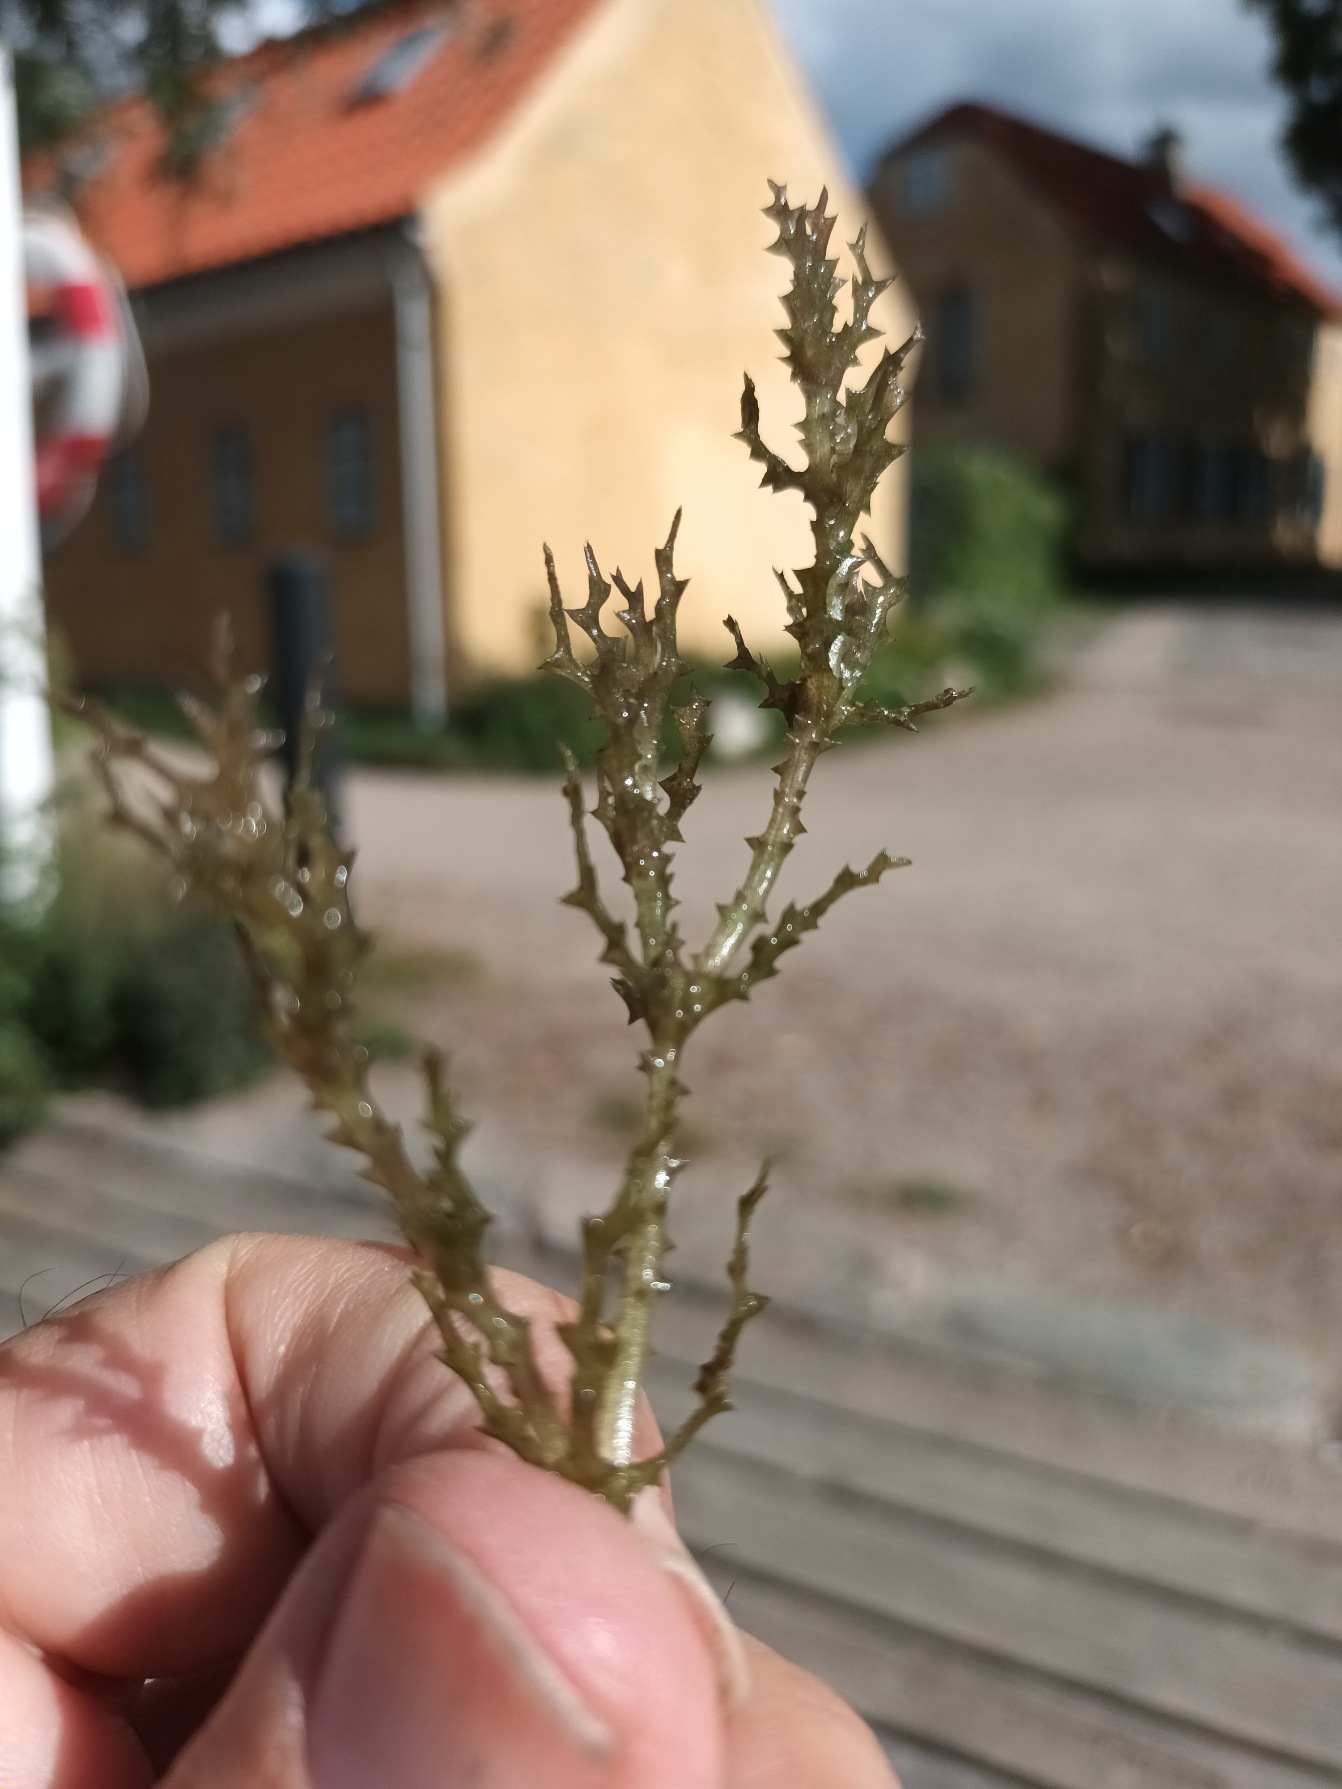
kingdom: Plantae
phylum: Tracheophyta
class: Liliopsida
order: Alismatales
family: Hydrocharitaceae
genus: Najas
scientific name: Najas marina
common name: Stor najade
